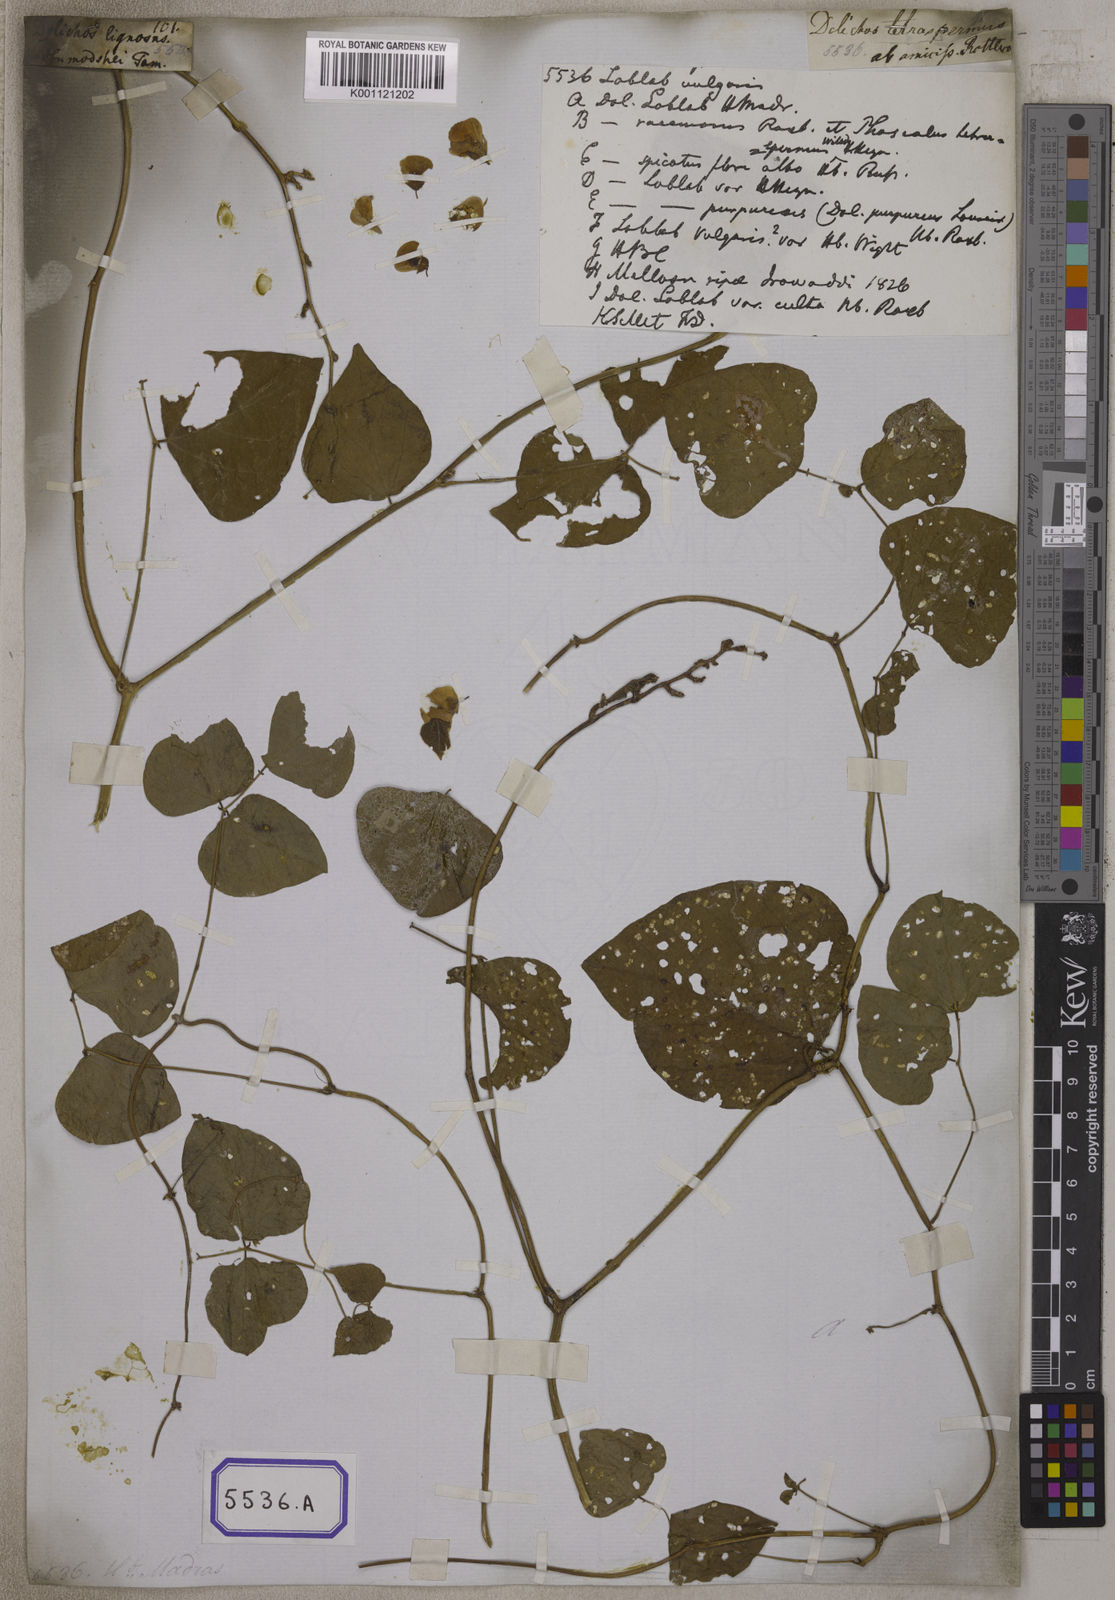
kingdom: Plantae
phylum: Tracheophyta
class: Magnoliopsida
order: Fabales
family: Fabaceae
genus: Lablab
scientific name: Lablab purpureus
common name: Lablab-bean
